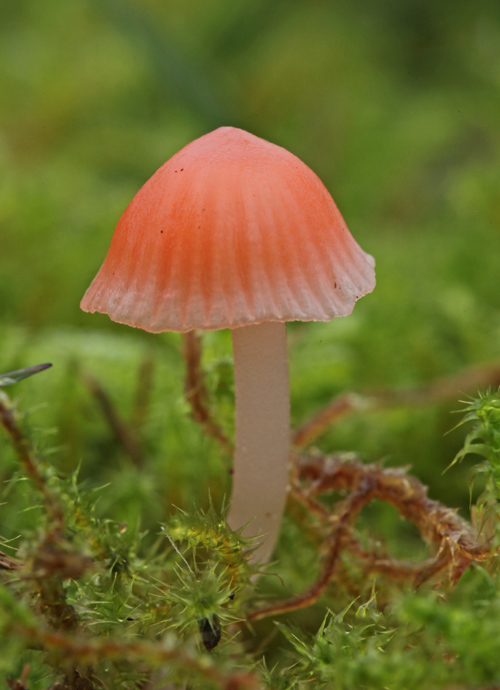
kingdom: Fungi
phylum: Basidiomycota
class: Agaricomycetes
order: Agaricales
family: Mycenaceae
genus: Atheniella
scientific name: Atheniella adonis
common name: rønnerød huesvamp
